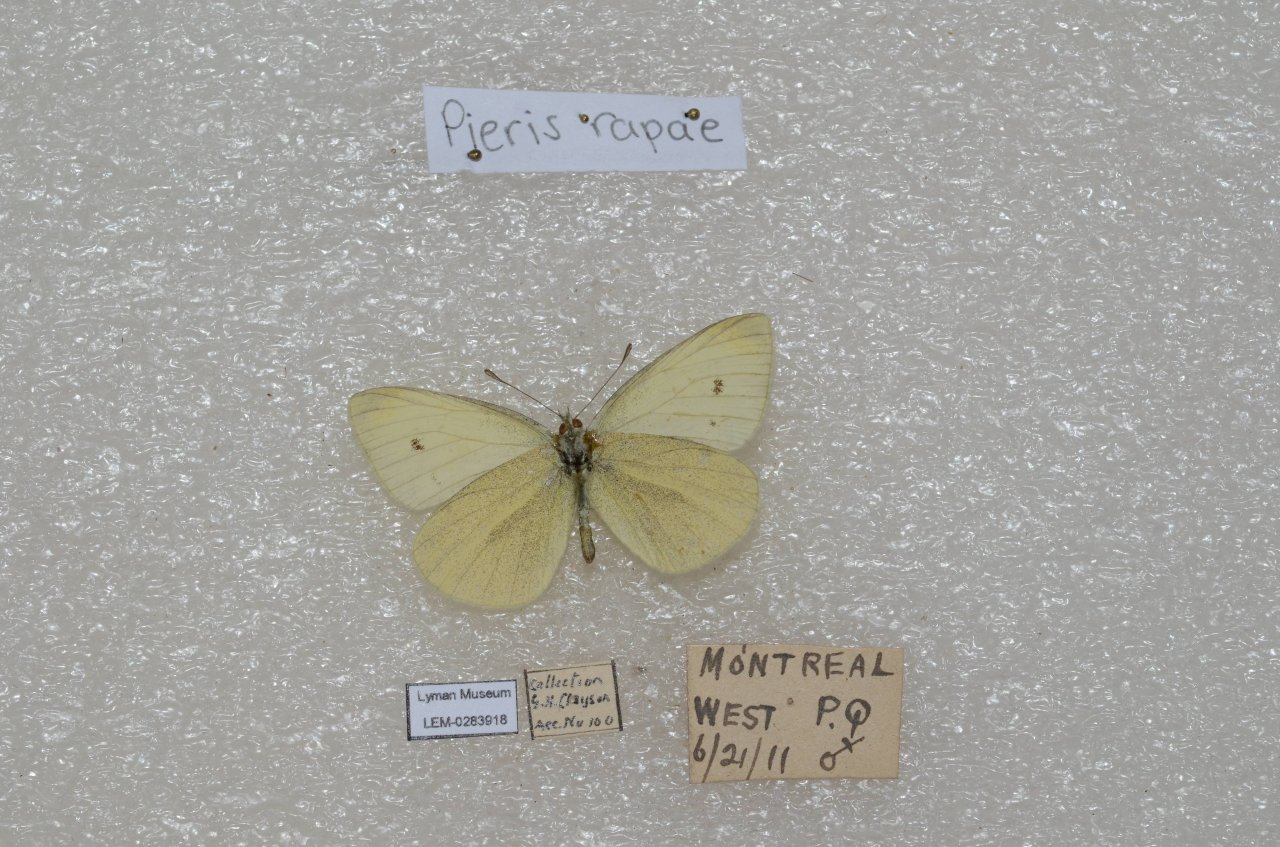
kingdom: Animalia
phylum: Arthropoda
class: Insecta
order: Lepidoptera
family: Pieridae
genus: Pieris
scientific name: Pieris
